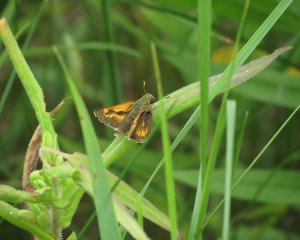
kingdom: Animalia
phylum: Arthropoda
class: Insecta
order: Lepidoptera
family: Hesperiidae
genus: Polites
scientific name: Polites
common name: Long Dash Skipper
